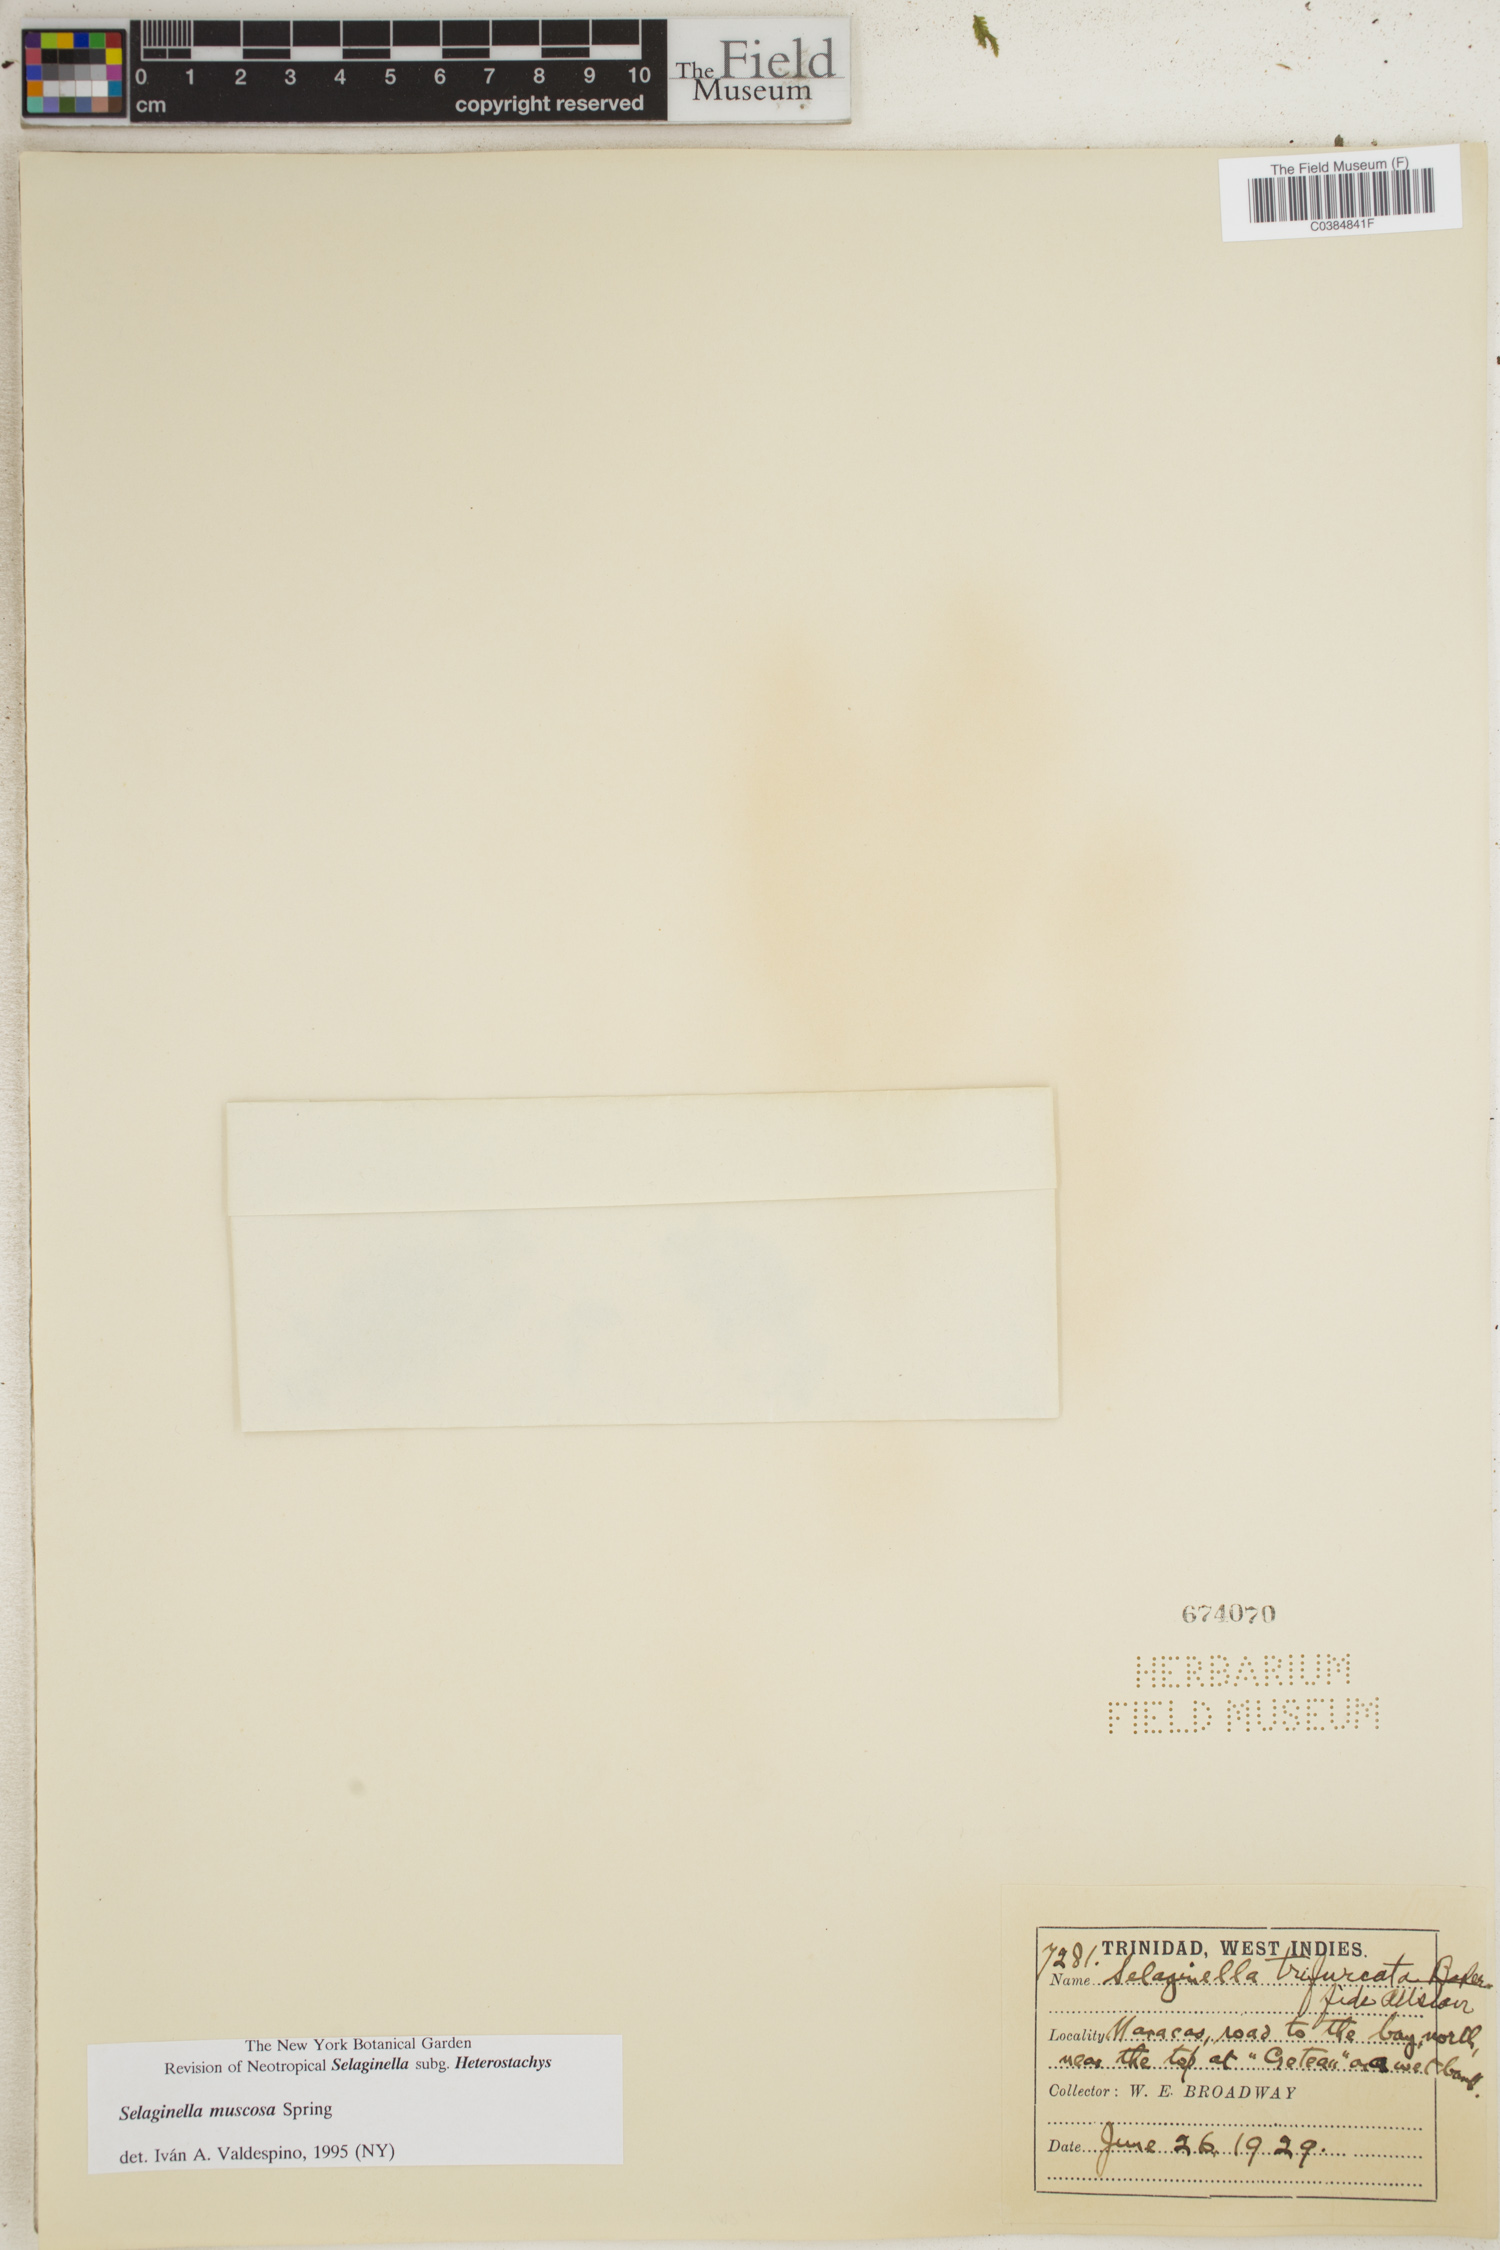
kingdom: Plantae
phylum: Tracheophyta
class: Lycopodiopsida
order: Selaginellales
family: Selaginellaceae
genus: Selaginella
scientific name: Selaginella muscosa
